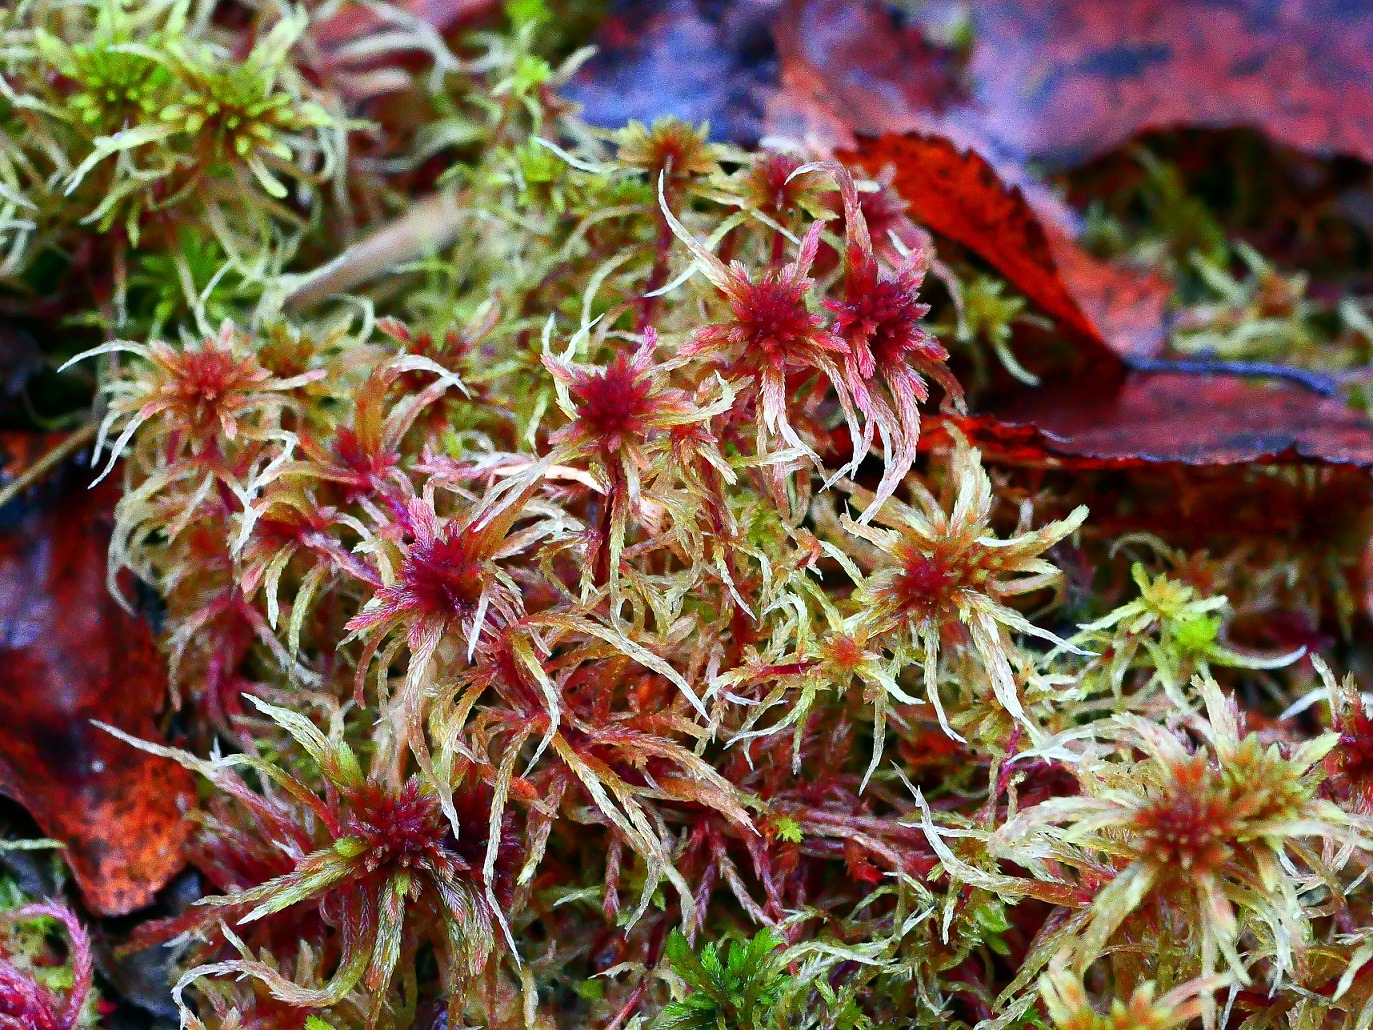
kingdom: Plantae
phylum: Bryophyta
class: Sphagnopsida
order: Sphagnales
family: Sphagnaceae
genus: Sphagnum
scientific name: Sphagnum warnstorfii
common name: Blygrå tørvemos
